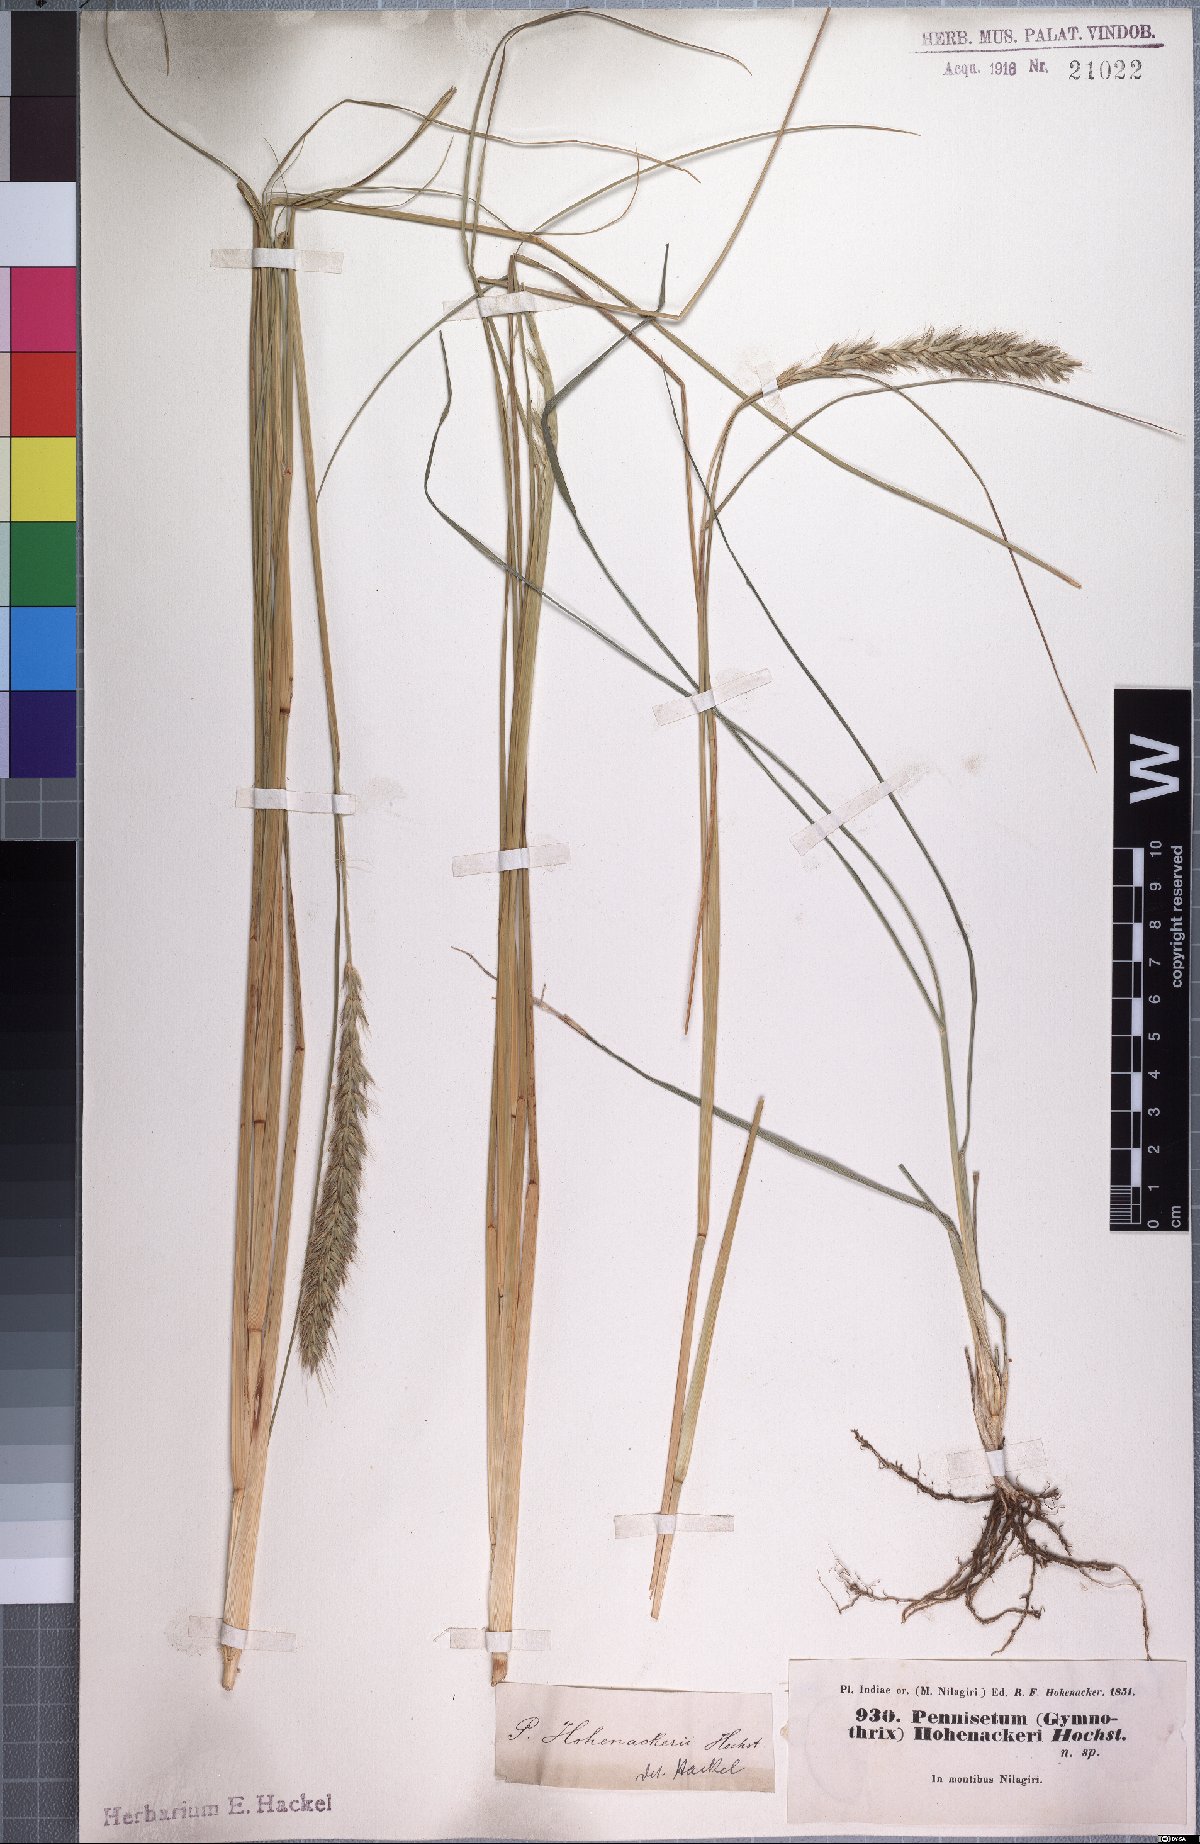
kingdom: Plantae
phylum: Tracheophyta
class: Liliopsida
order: Poales
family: Poaceae
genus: Cenchrus
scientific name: Cenchrus hohenackeri
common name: Moya grass
